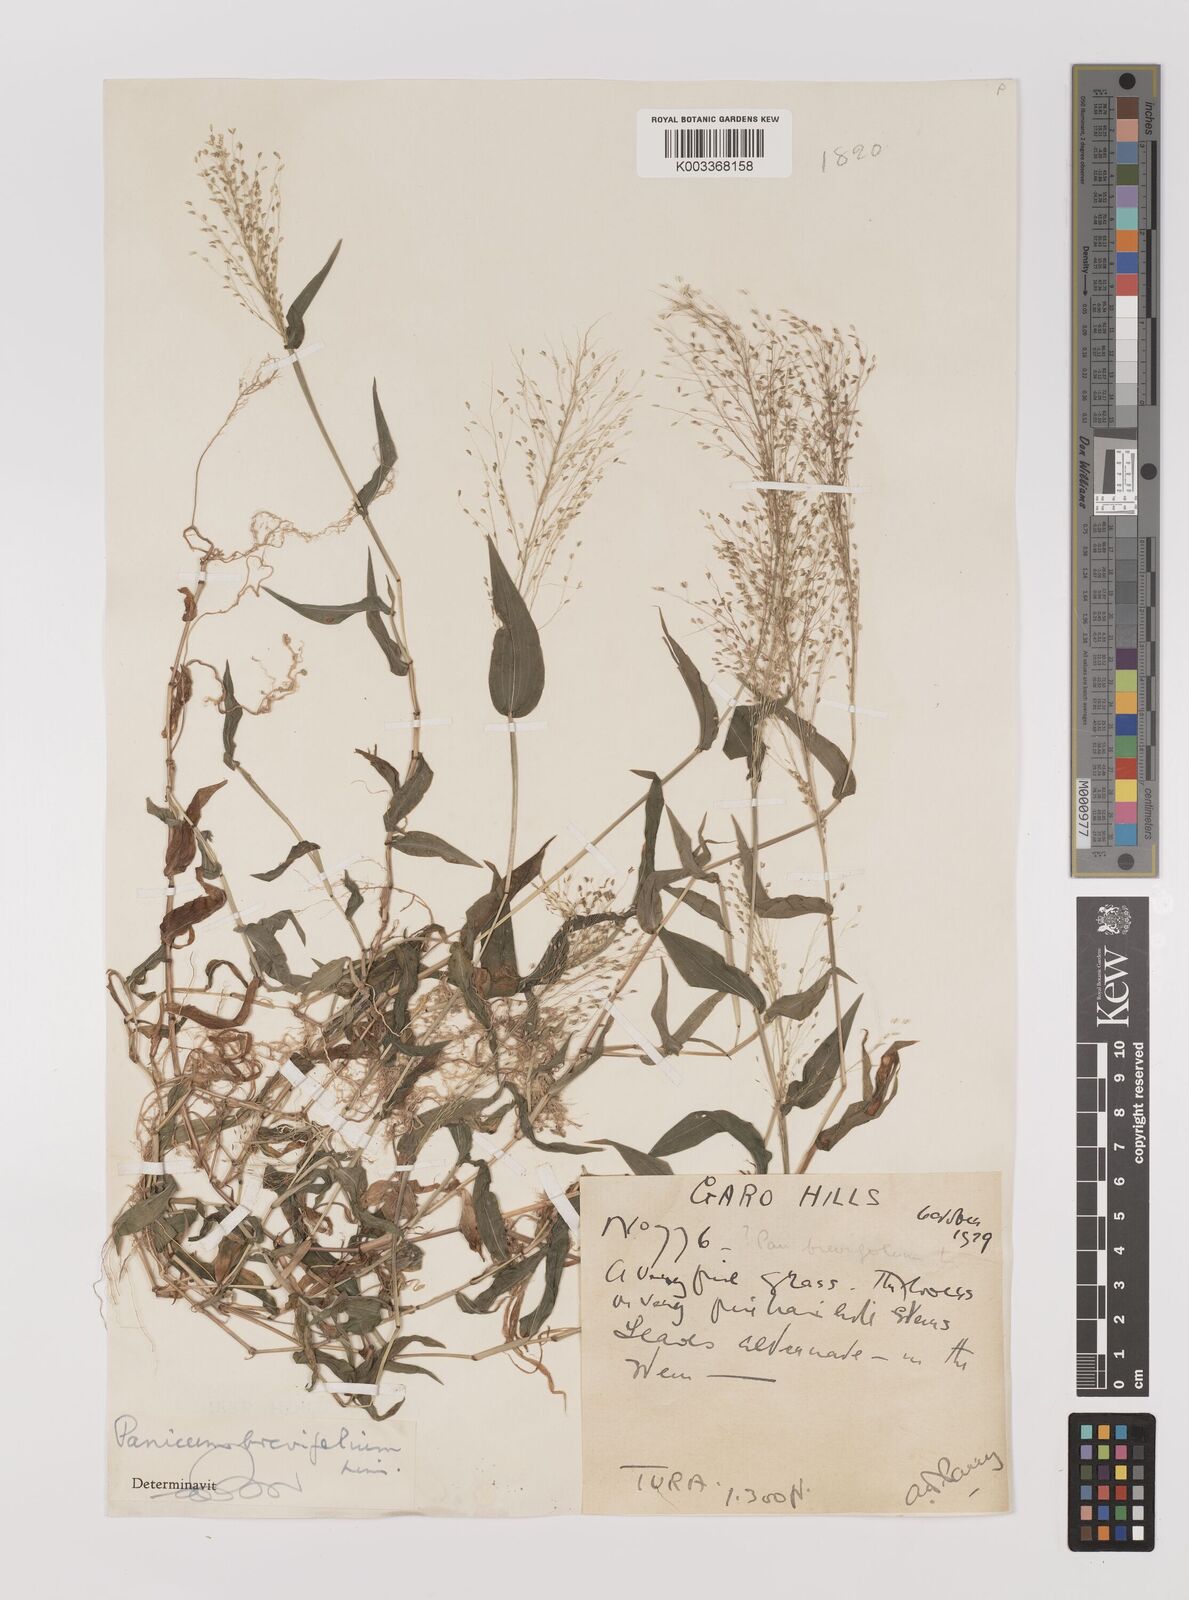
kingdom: Plantae
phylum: Tracheophyta
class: Liliopsida
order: Poales
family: Poaceae
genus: Panicum
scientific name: Panicum brevifolium
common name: Shortleaf panic grass
